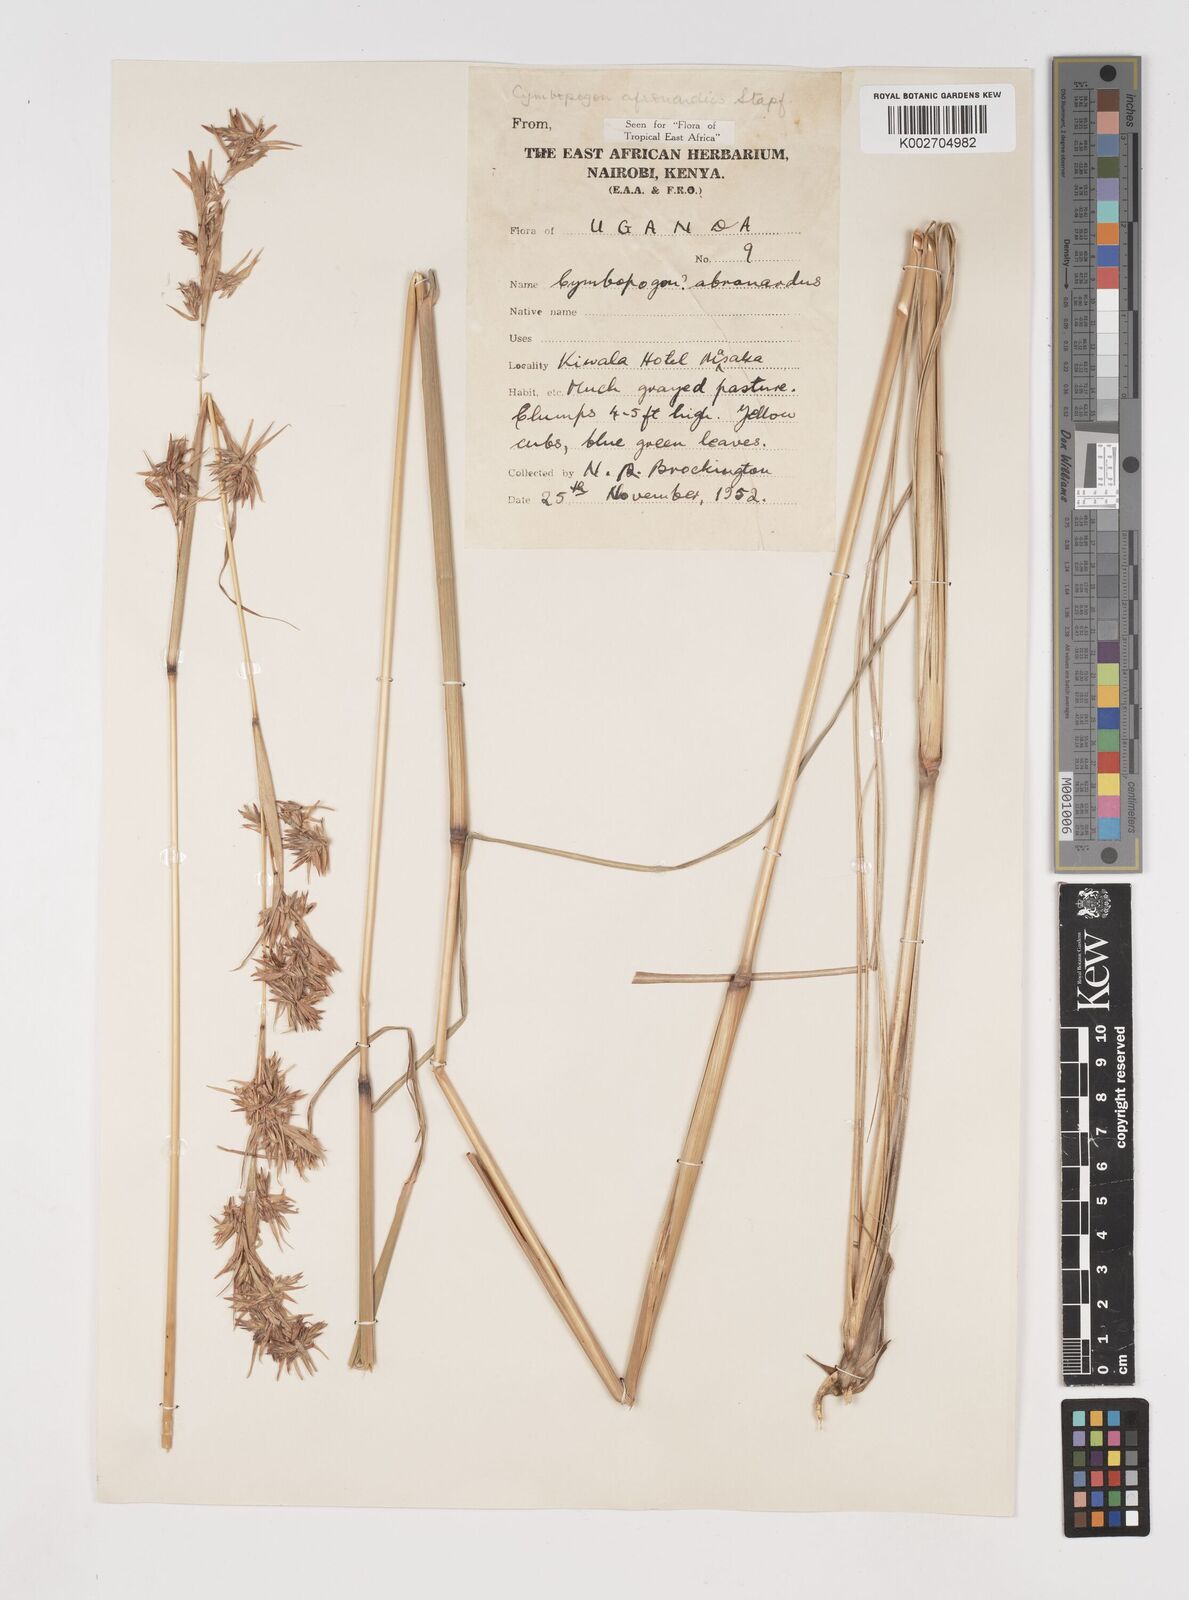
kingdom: Plantae
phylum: Tracheophyta
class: Liliopsida
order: Poales
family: Poaceae
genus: Cymbopogon
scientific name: Cymbopogon nardus
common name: Giant turpentine grass
